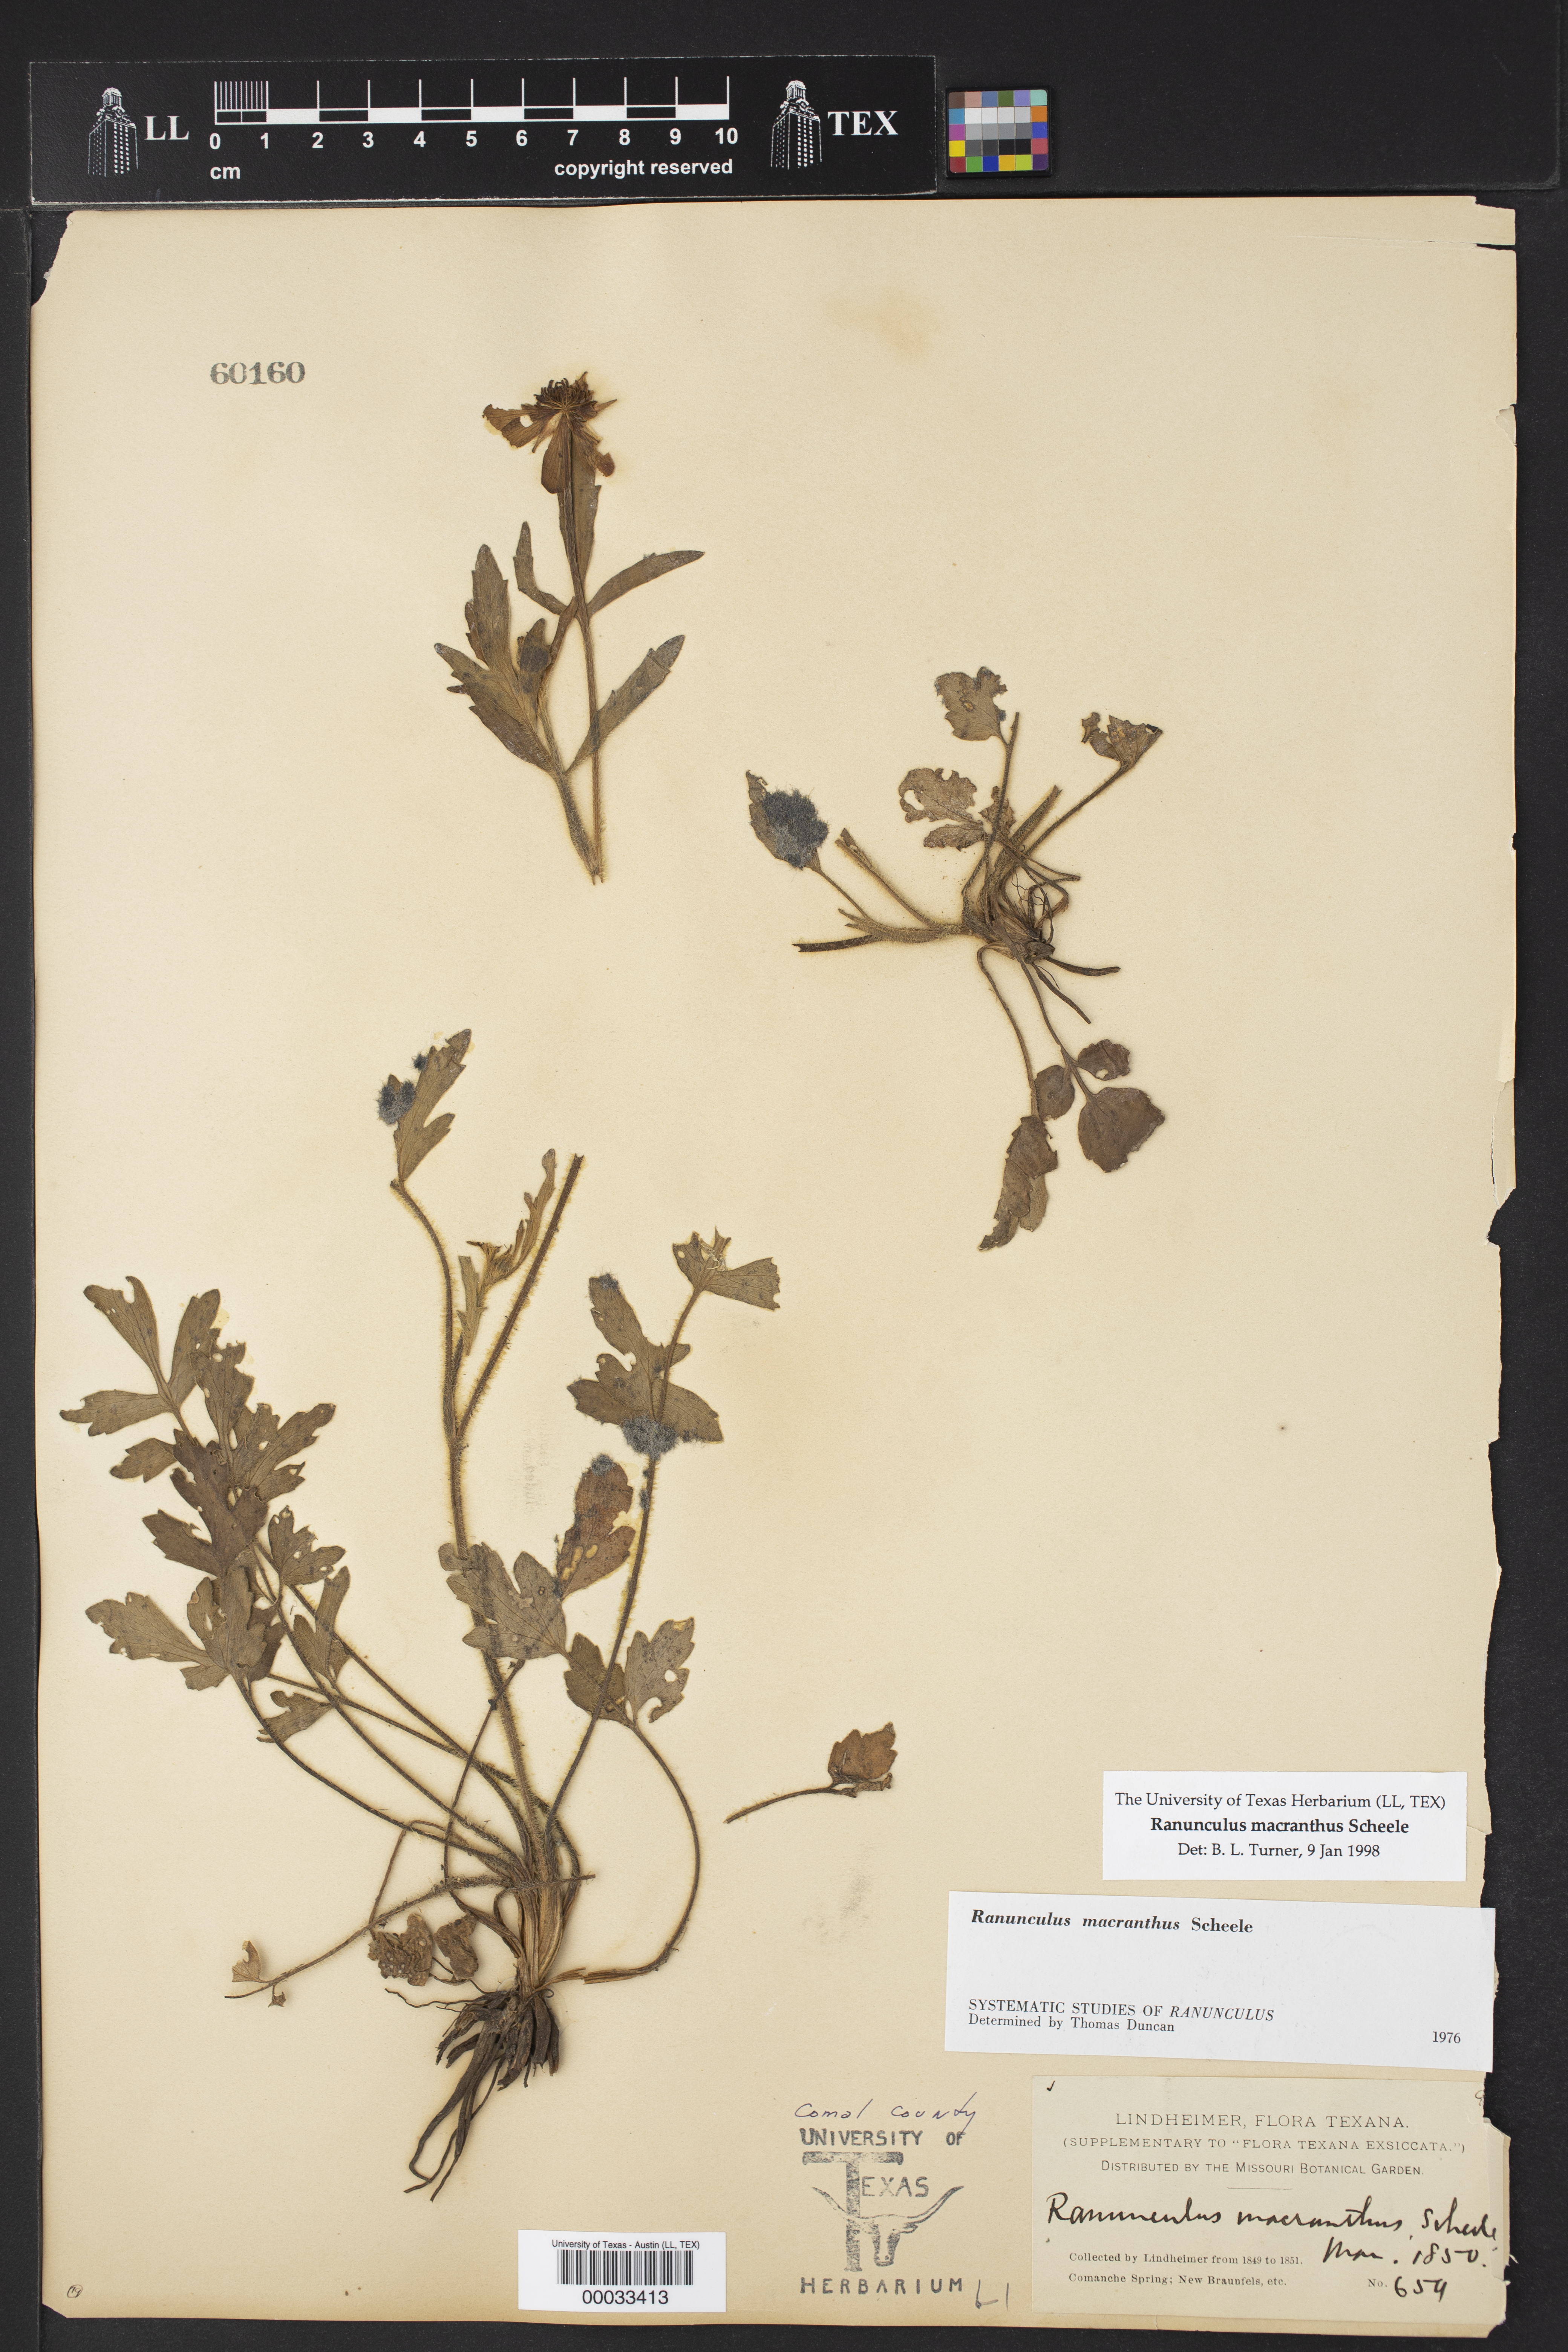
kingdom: Plantae
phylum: Tracheophyta
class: Magnoliopsida
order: Ranunculales
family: Ranunculaceae
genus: Ranunculus
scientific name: Ranunculus macranthus
